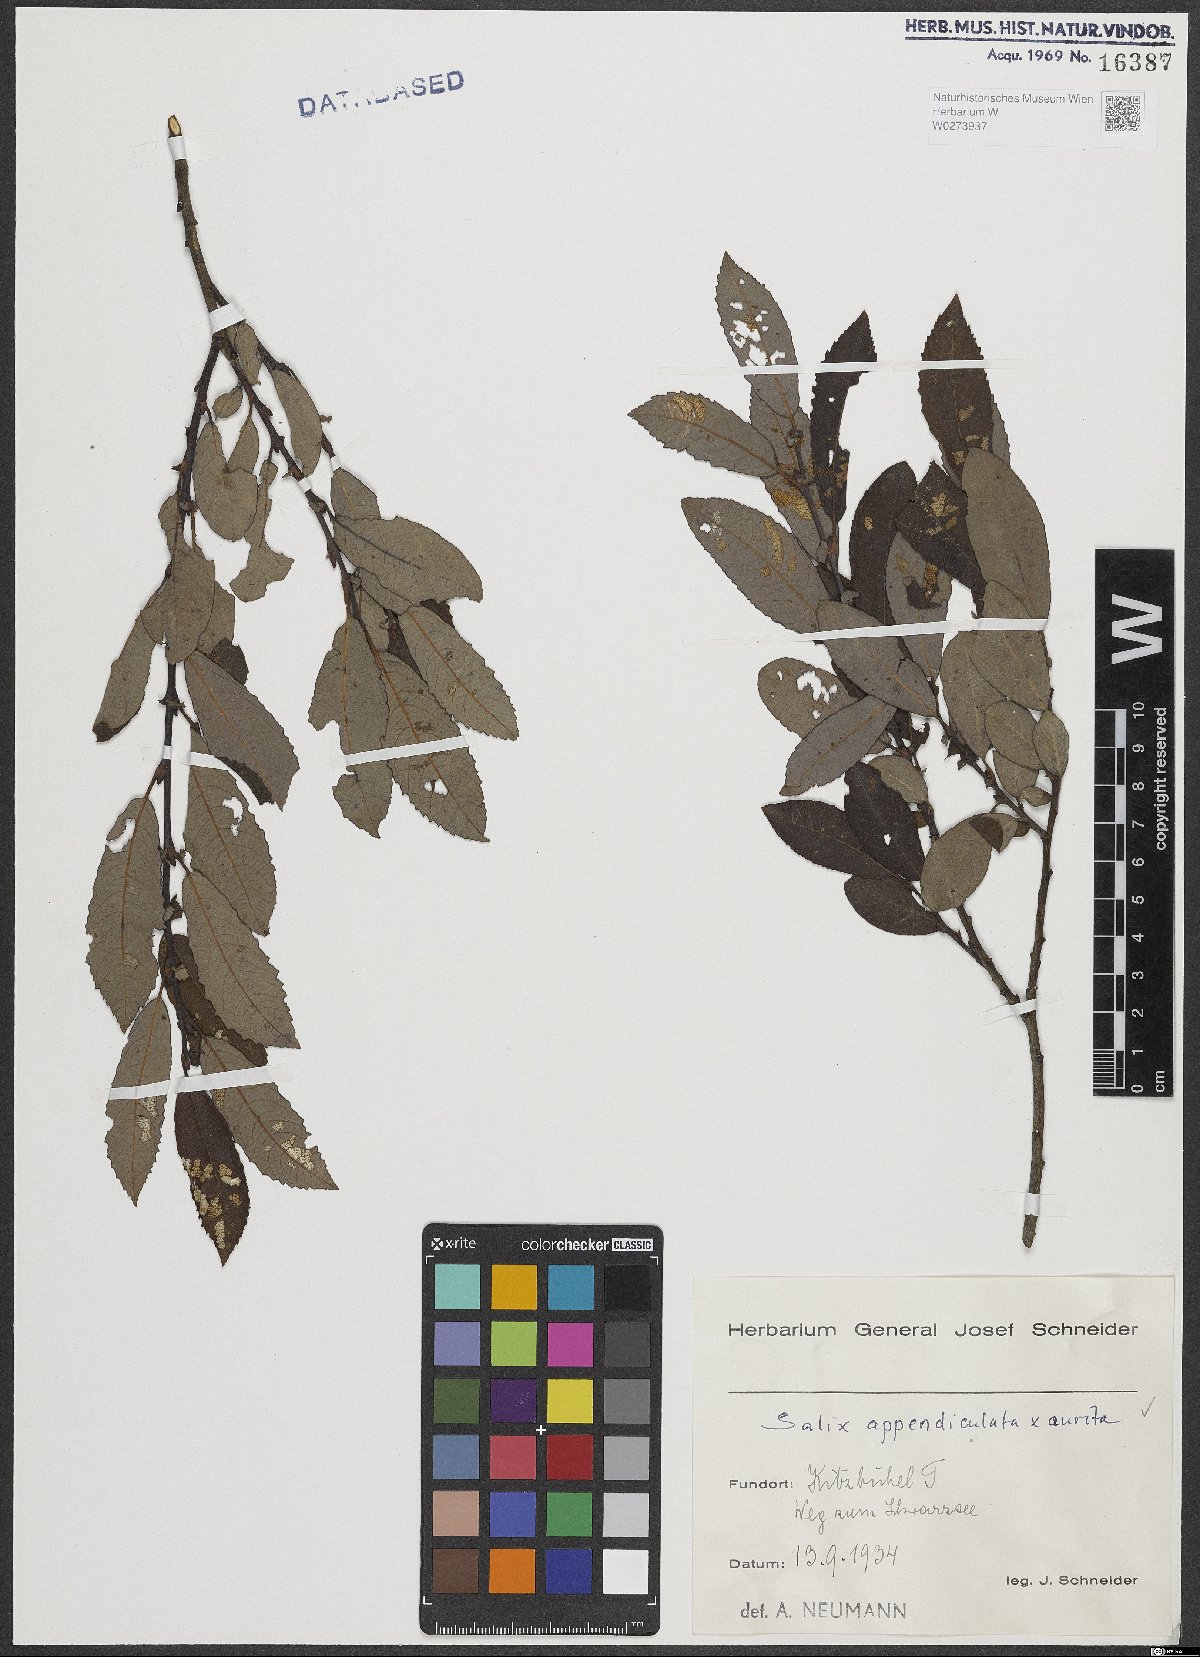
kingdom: Plantae
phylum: Tracheophyta
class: Magnoliopsida
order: Malpighiales
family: Salicaceae
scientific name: Salicaceae
